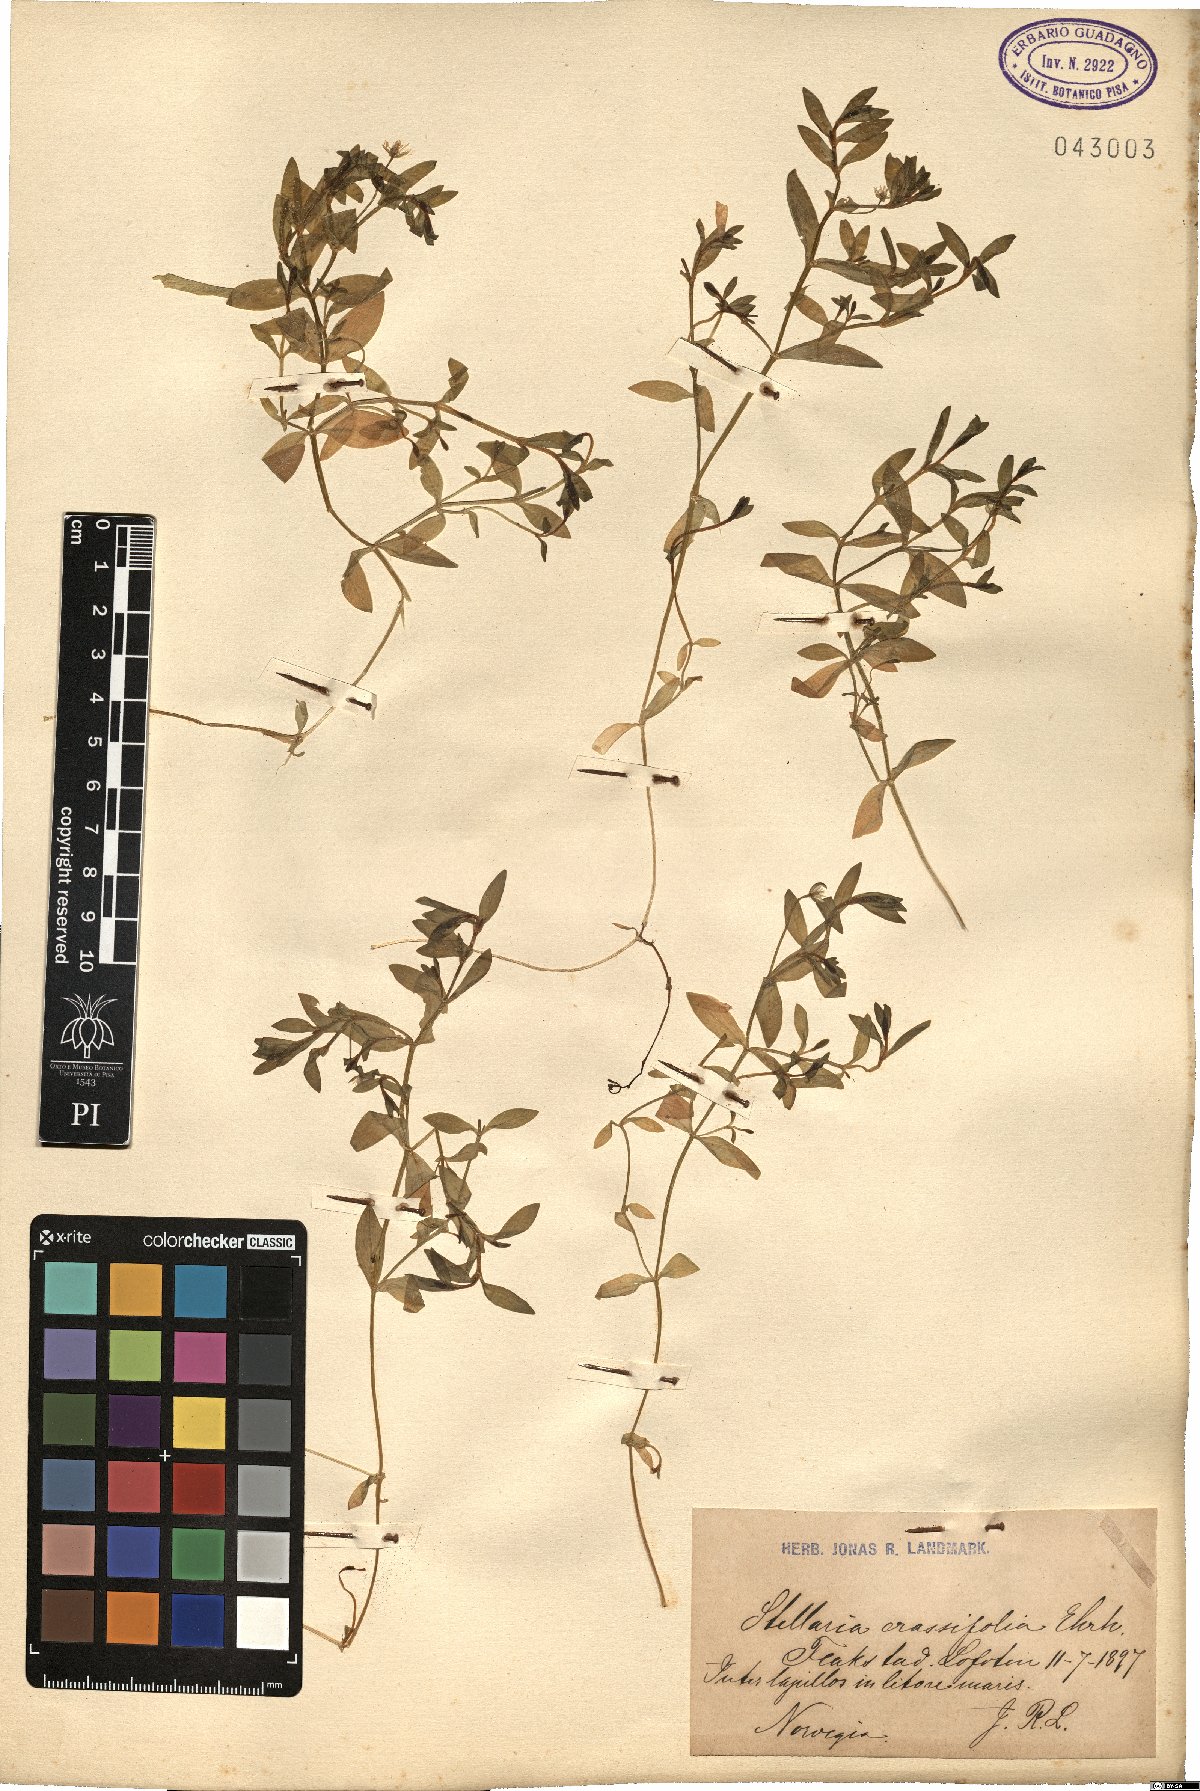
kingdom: Plantae
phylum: Tracheophyta
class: Magnoliopsida
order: Caryophyllales
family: Caryophyllaceae
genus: Stellaria
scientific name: Stellaria crassifolia
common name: Fleshy starwort
